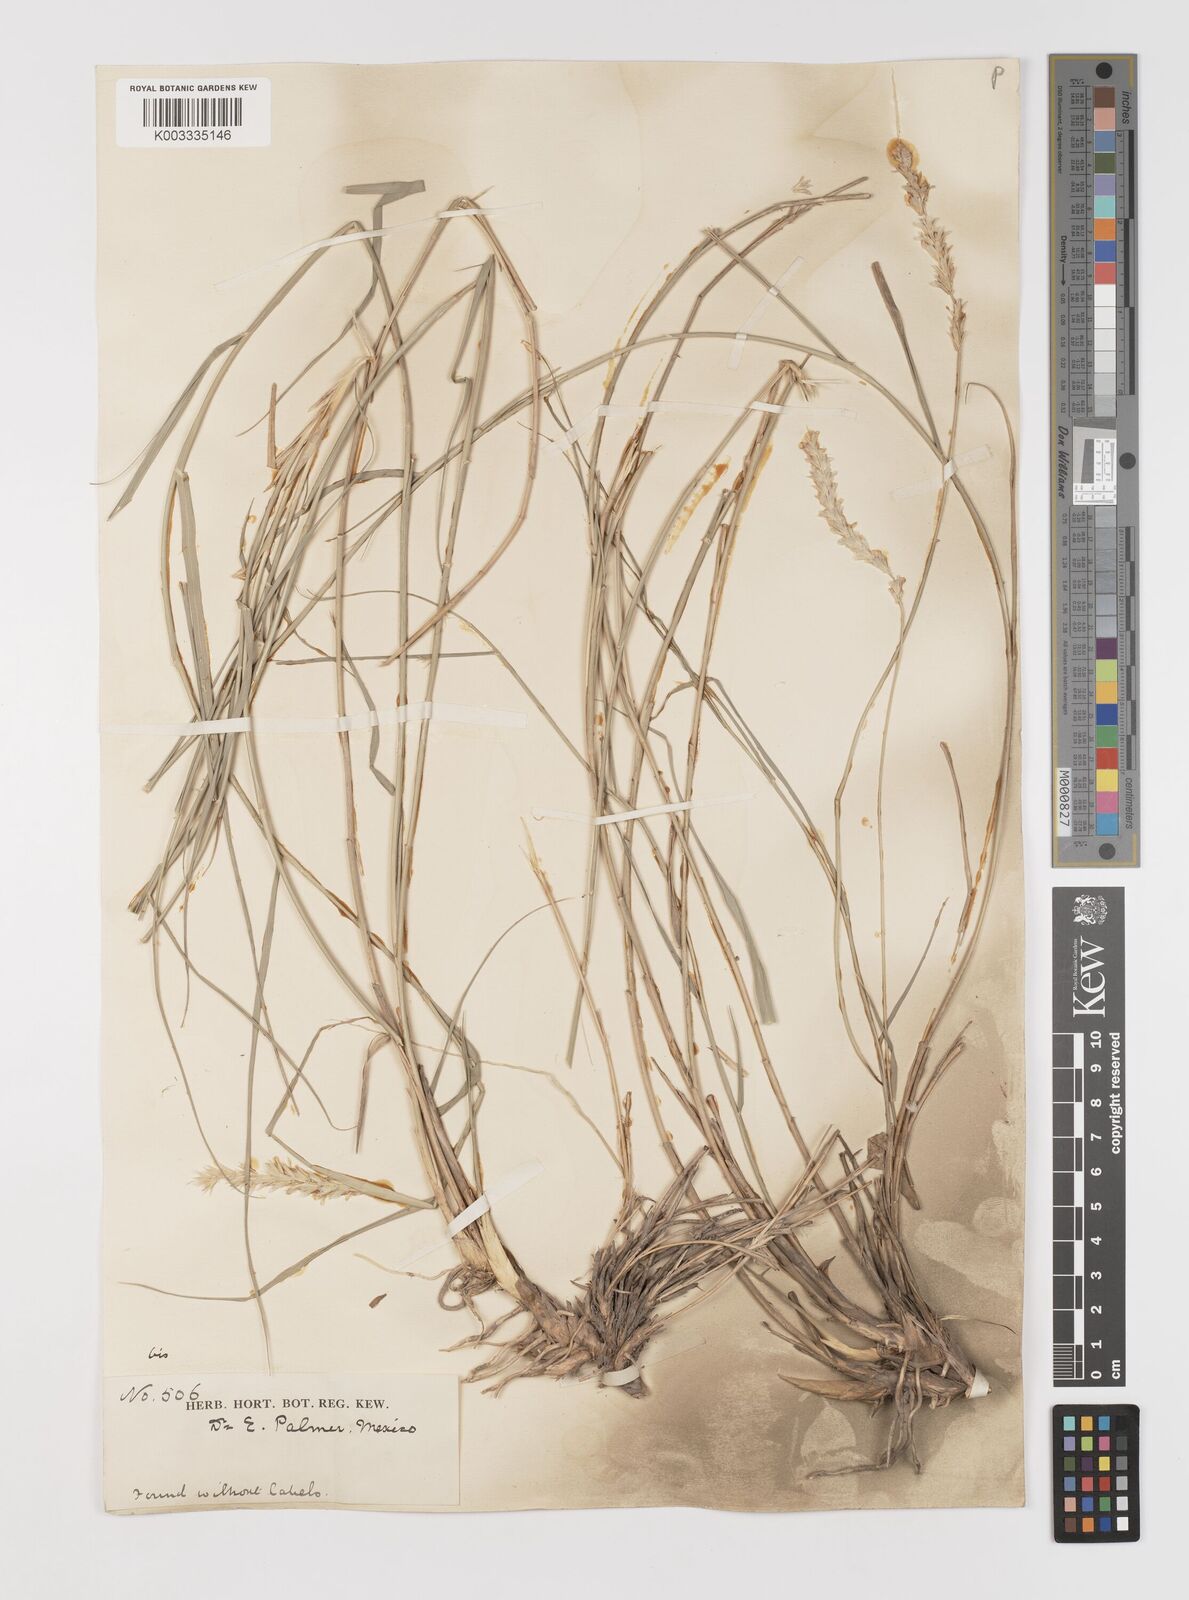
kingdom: Plantae
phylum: Tracheophyta
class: Liliopsida
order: Poales
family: Poaceae
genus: Hilaria
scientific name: Hilaria mutica
